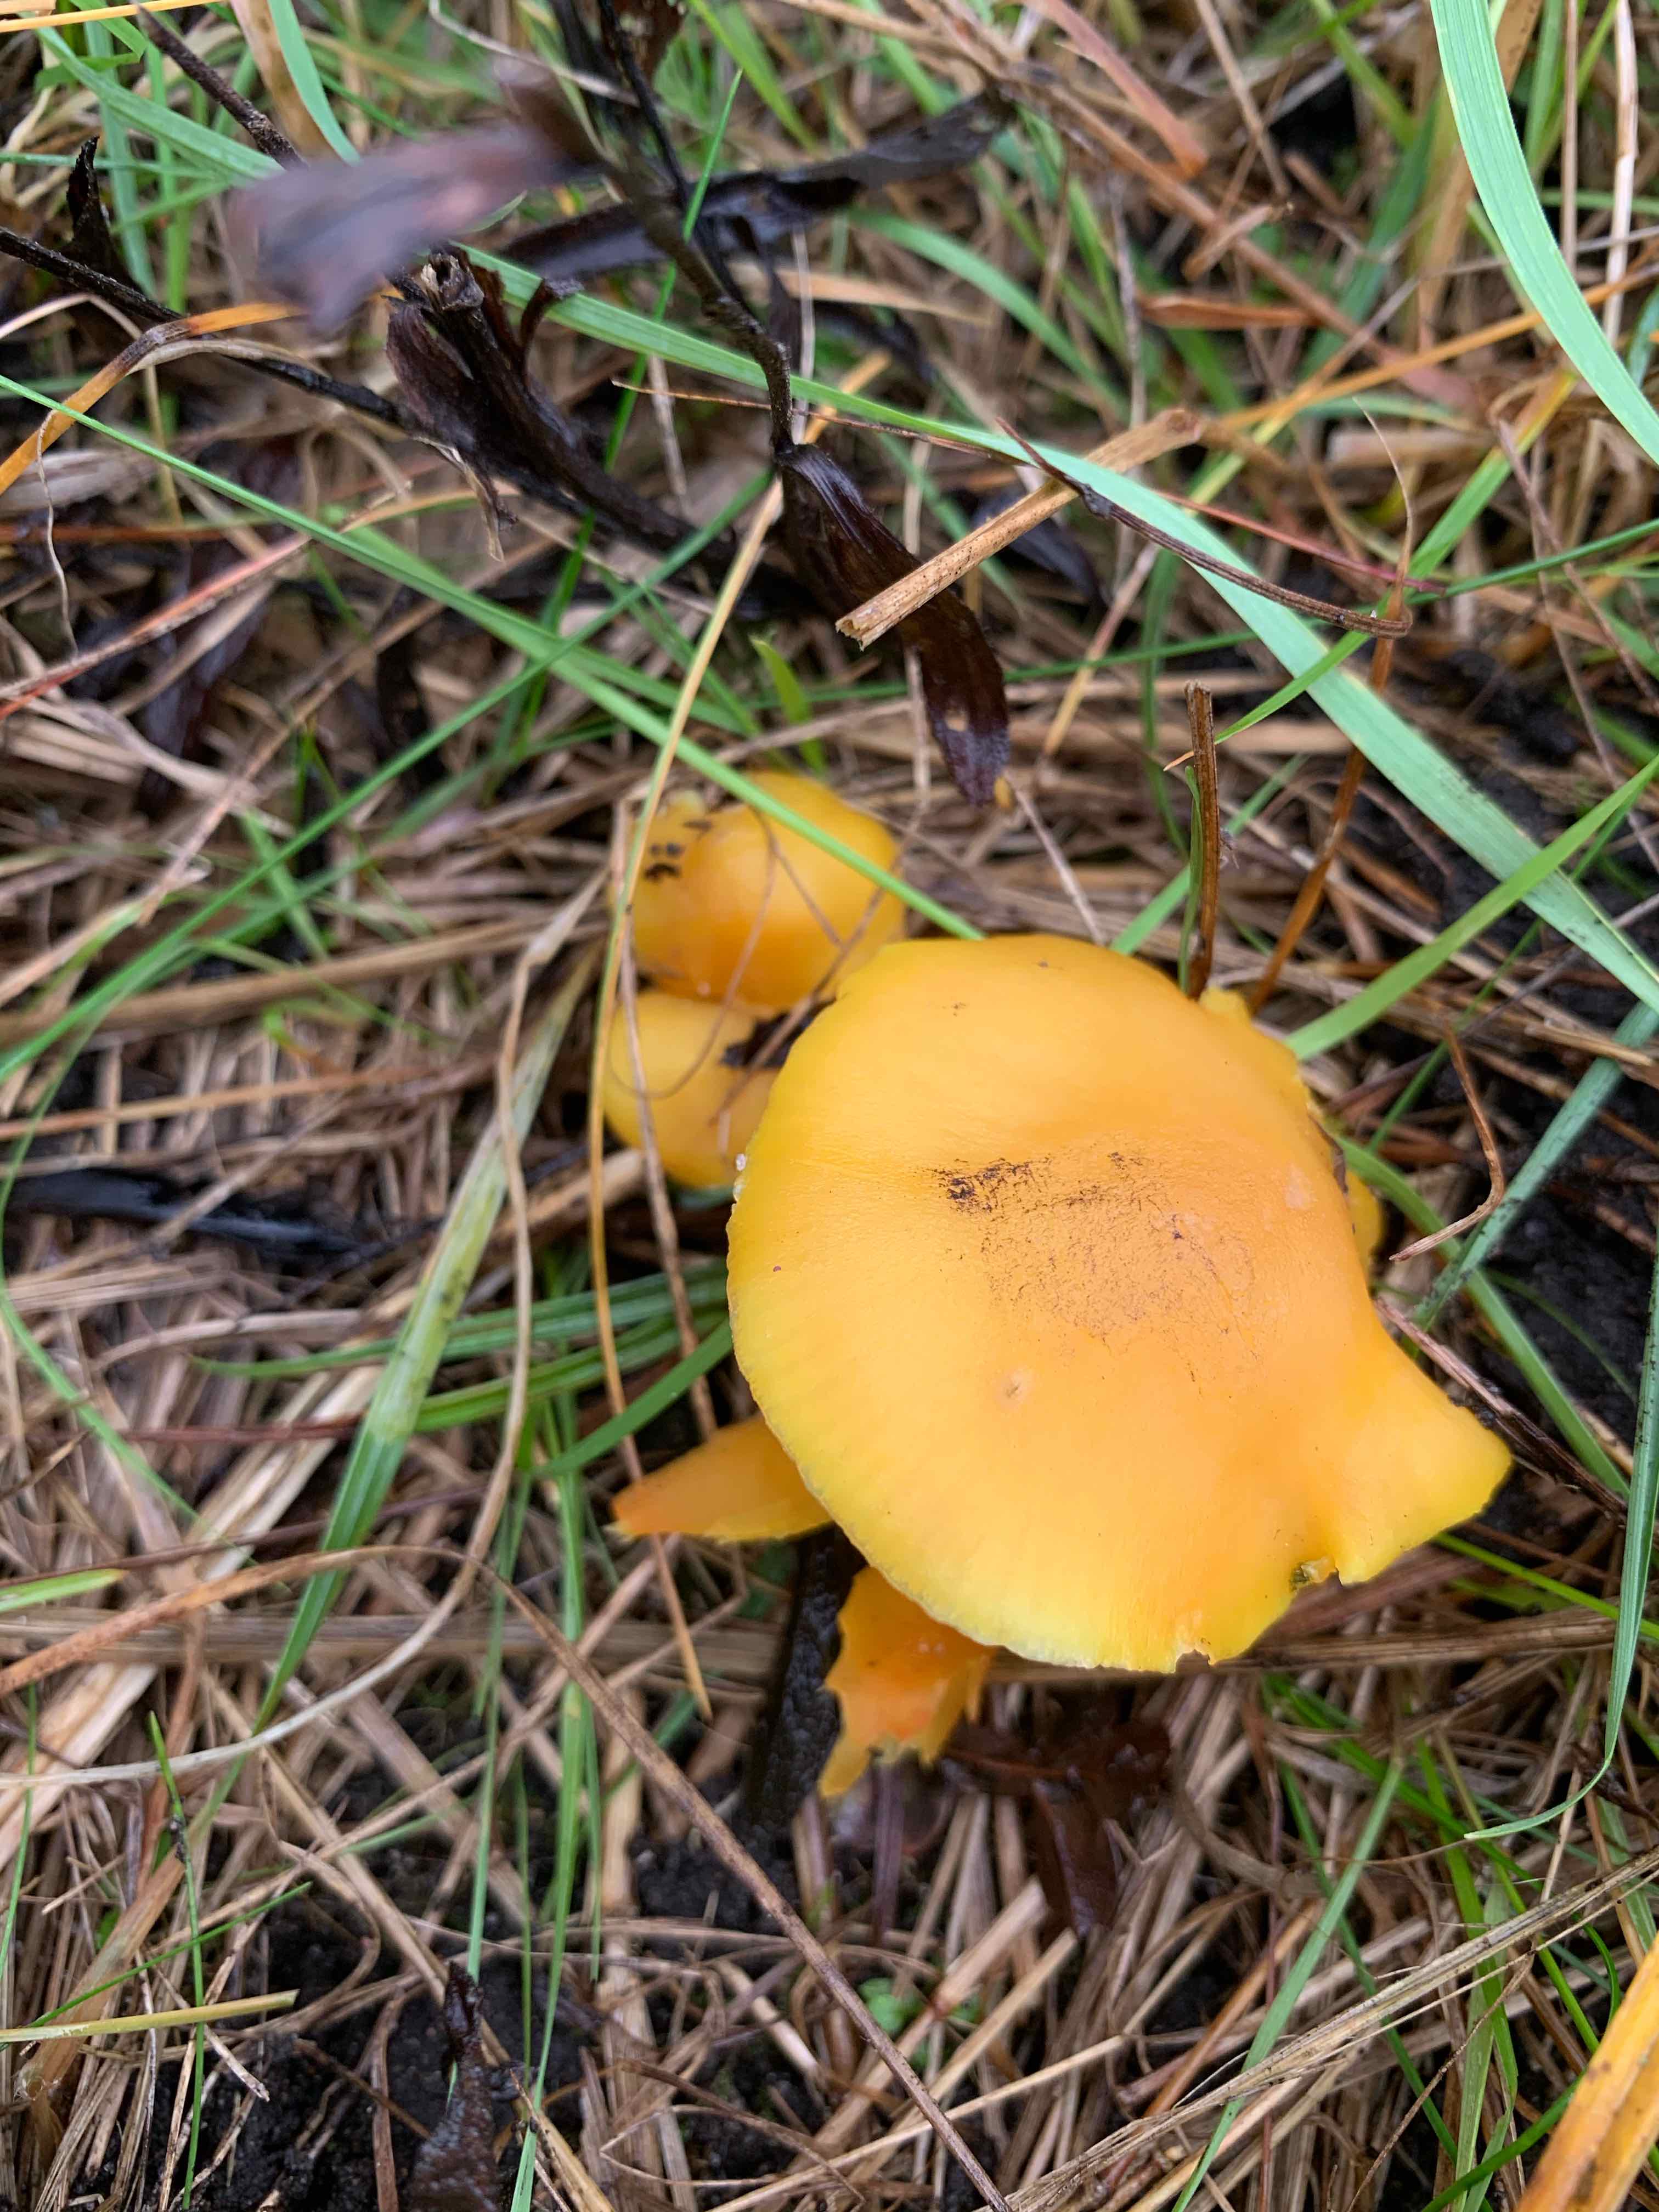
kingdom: Fungi
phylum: Basidiomycota
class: Agaricomycetes
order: Agaricales
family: Hygrophoraceae
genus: Hygrocybe
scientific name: Hygrocybe chlorophana
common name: gul vokshat
